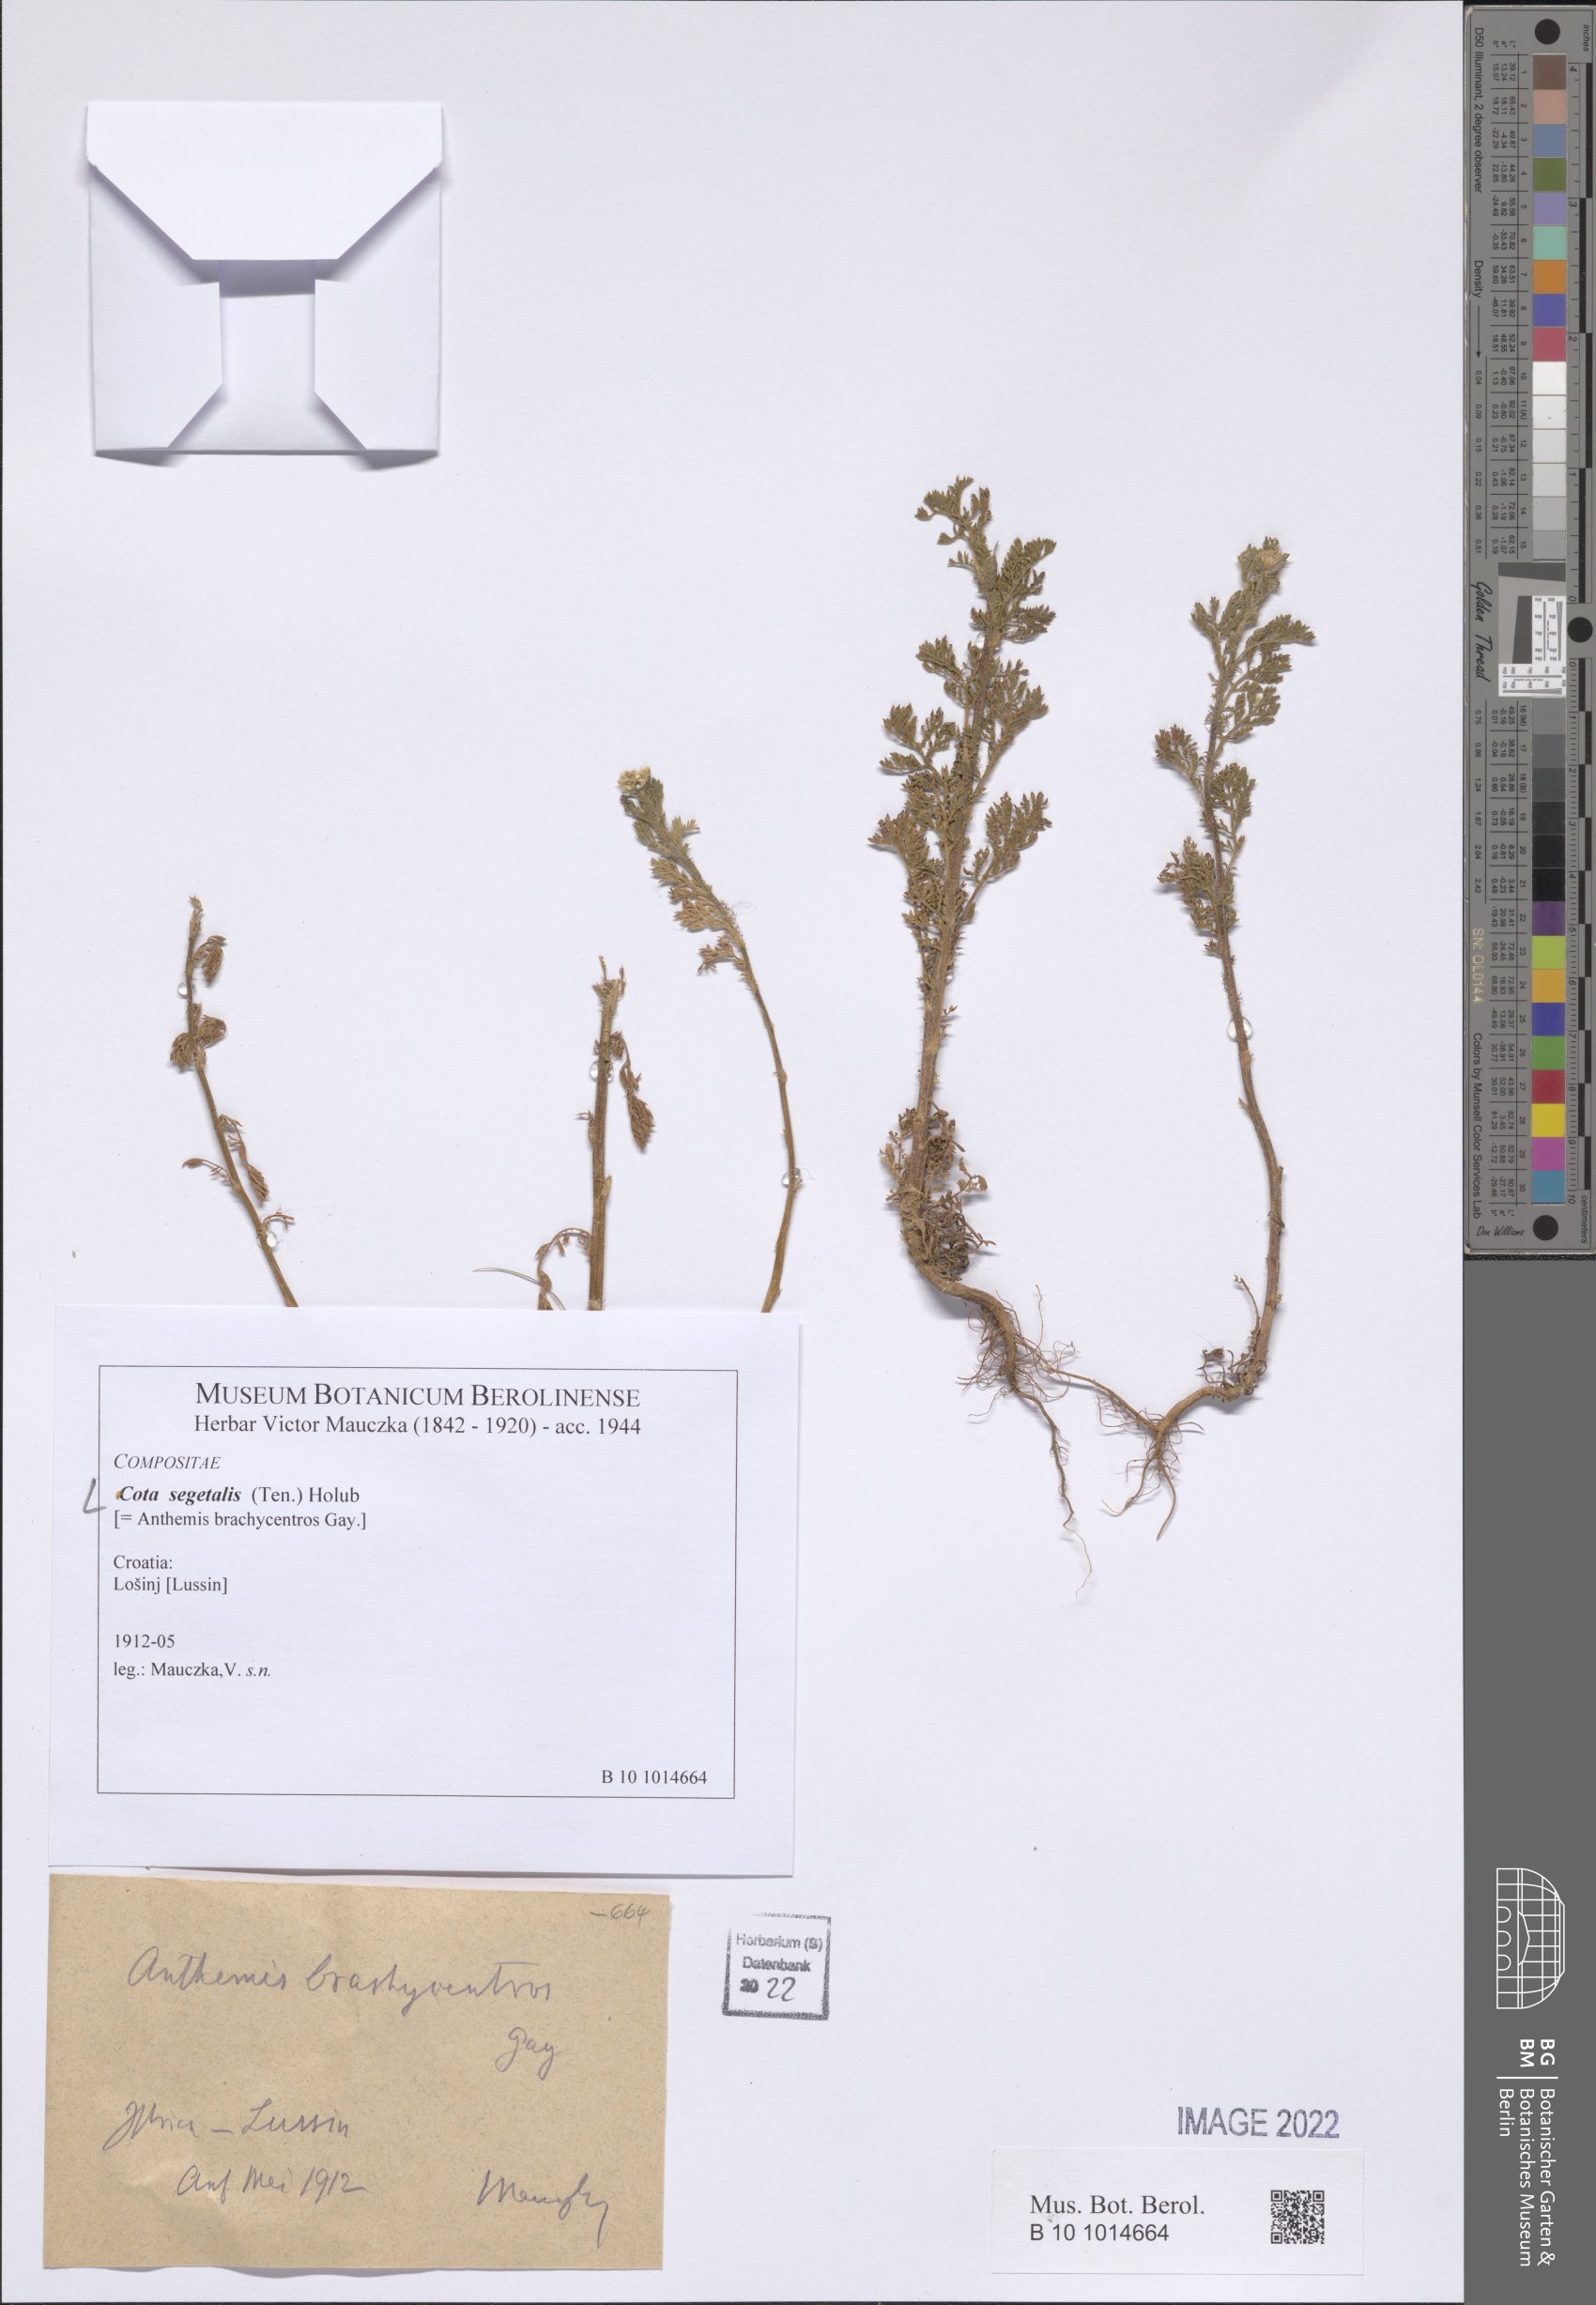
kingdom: Plantae
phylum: Tracheophyta
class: Magnoliopsida
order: Asterales
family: Asteraceae
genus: Cota
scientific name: Cota segetalis
